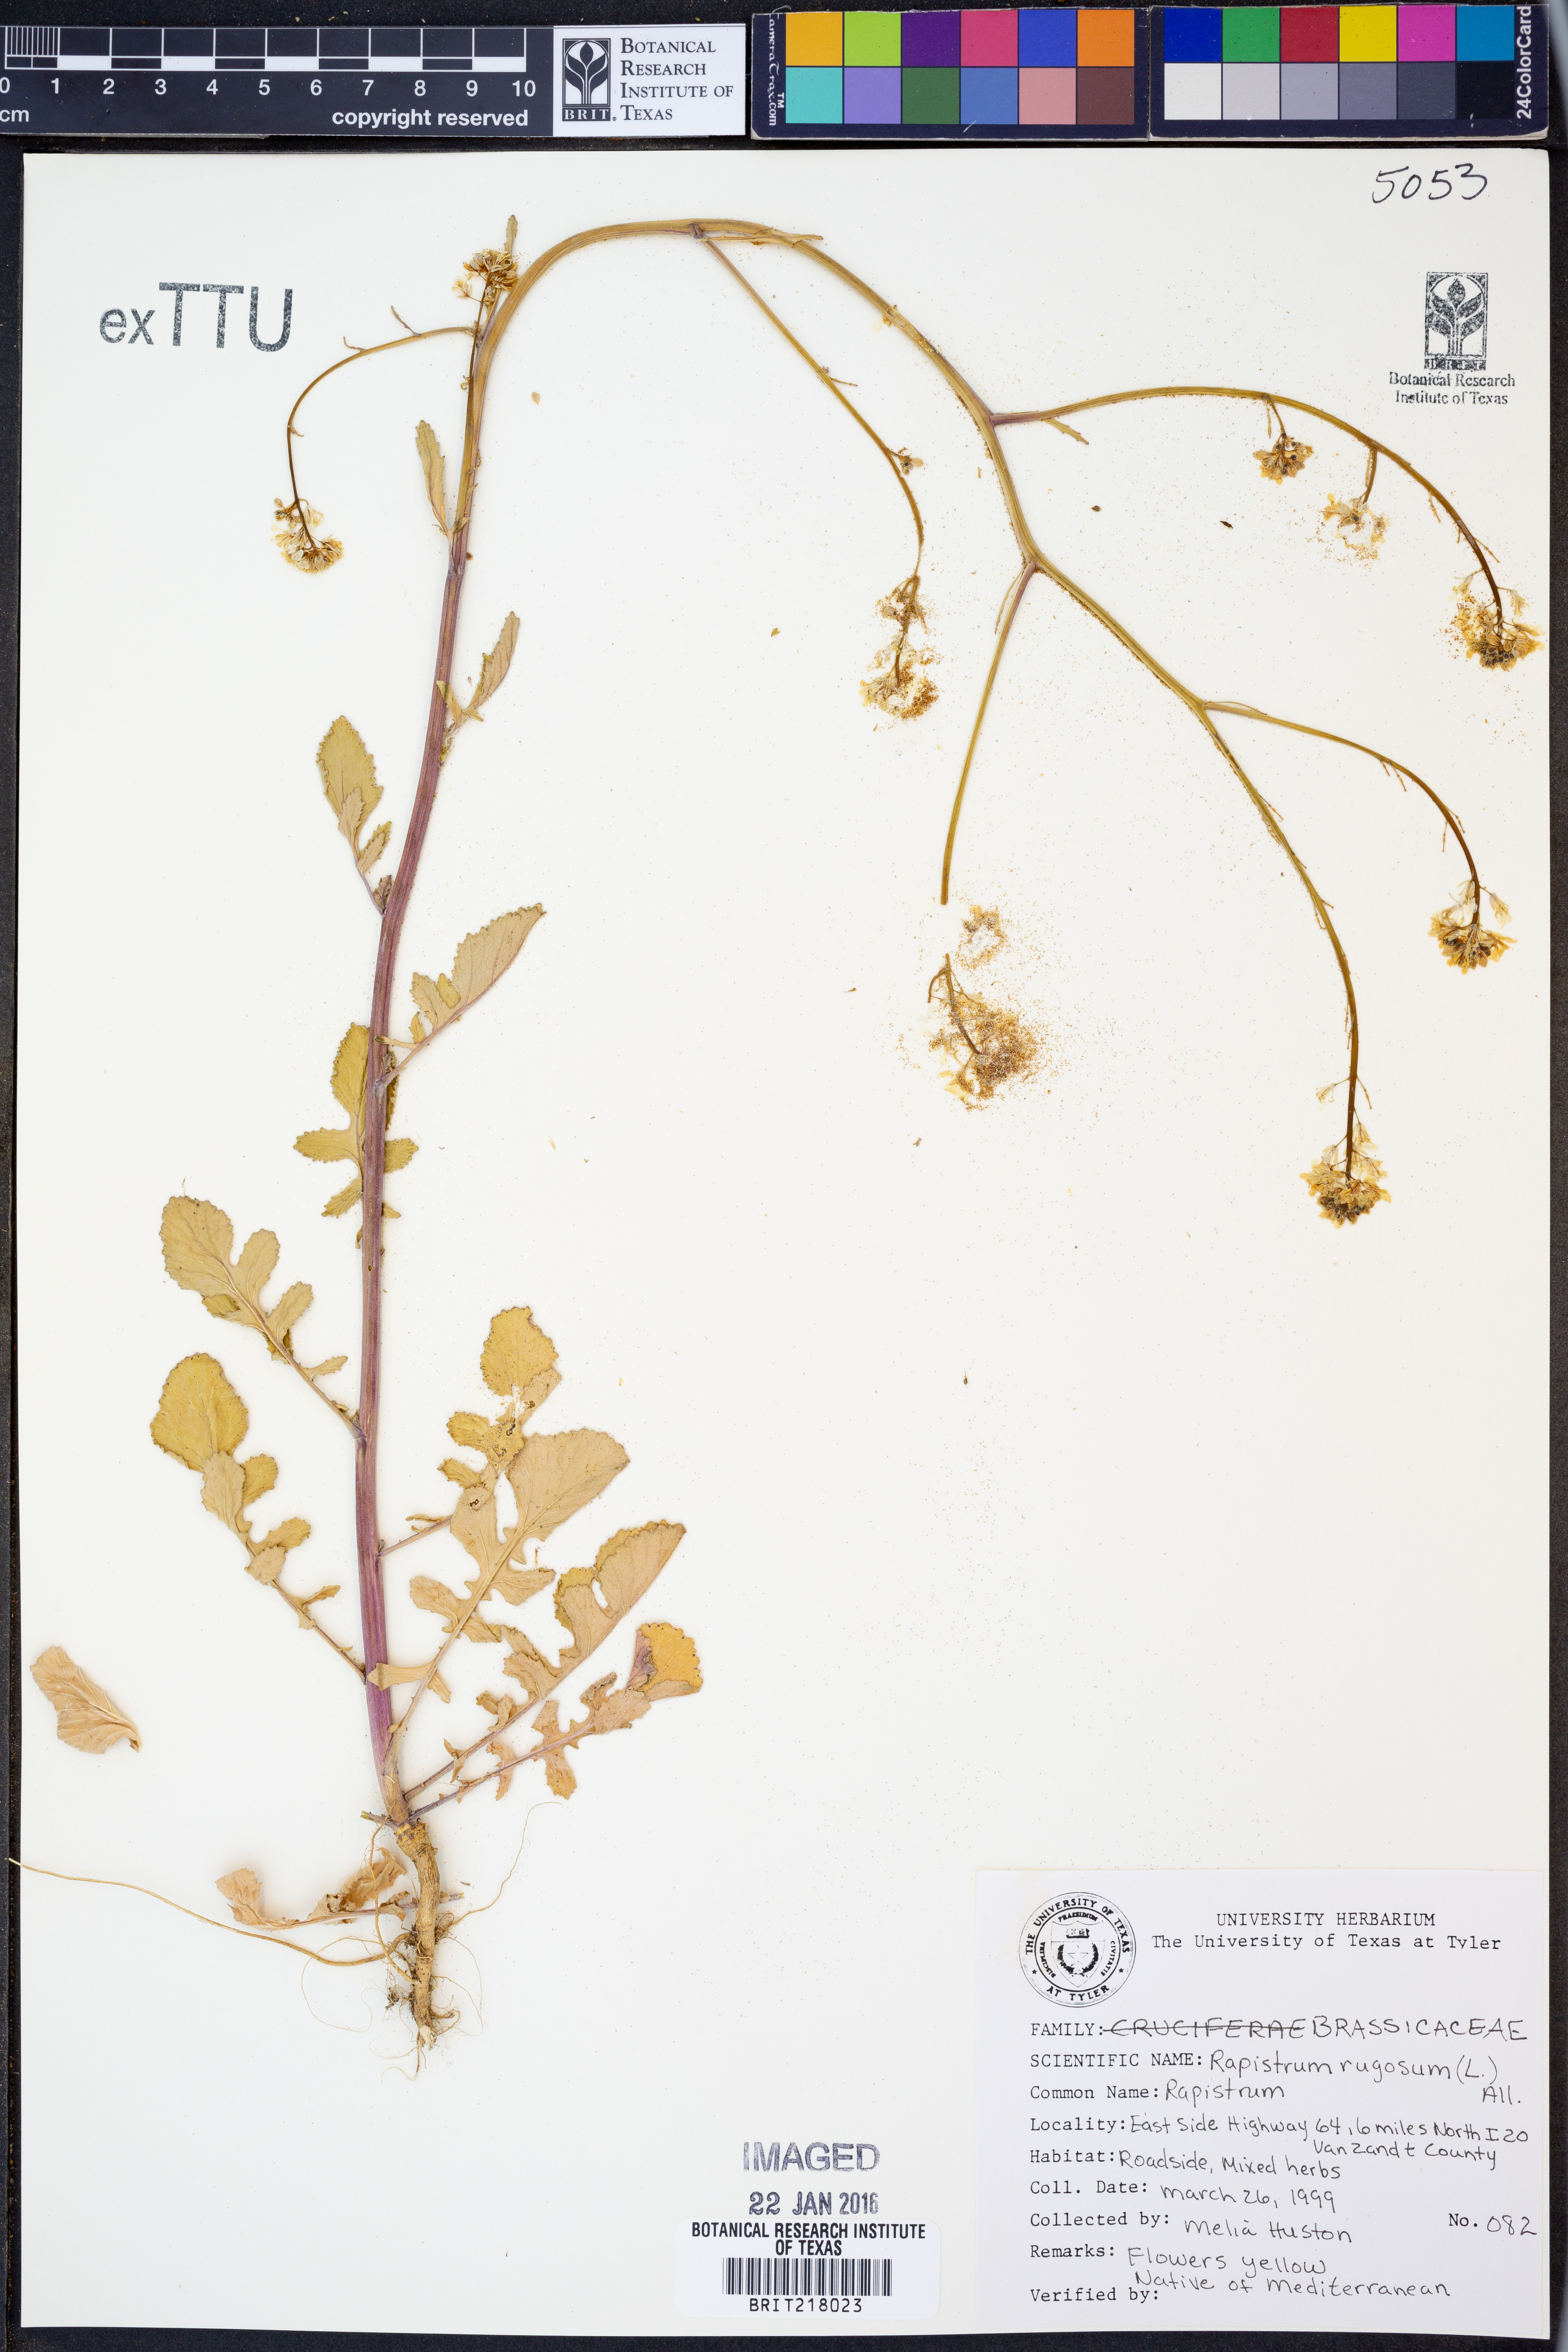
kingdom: Plantae
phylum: Tracheophyta
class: Magnoliopsida
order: Brassicales
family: Brassicaceae
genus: Rapistrum
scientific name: Rapistrum rugosum
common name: Annual bastardcabbage
